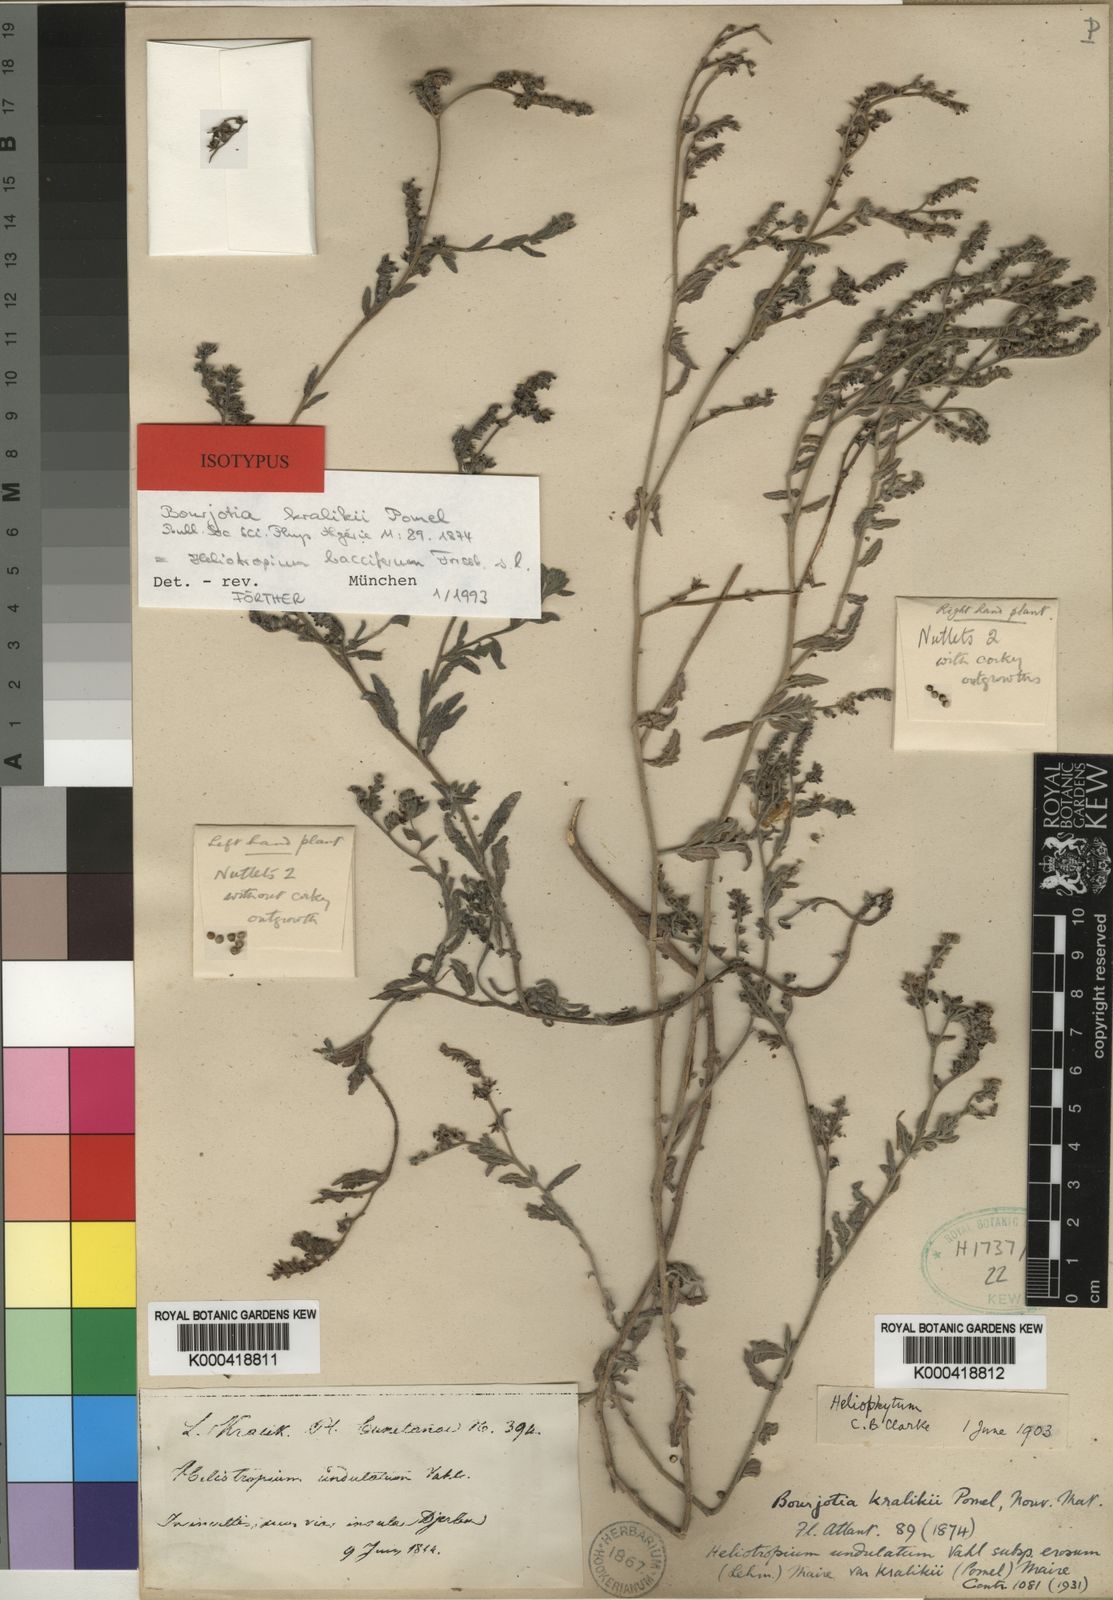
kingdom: Plantae
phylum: Tracheophyta
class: Magnoliopsida
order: Boraginales
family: Heliotropiaceae
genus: Heliotropium
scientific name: Heliotropium crispum
